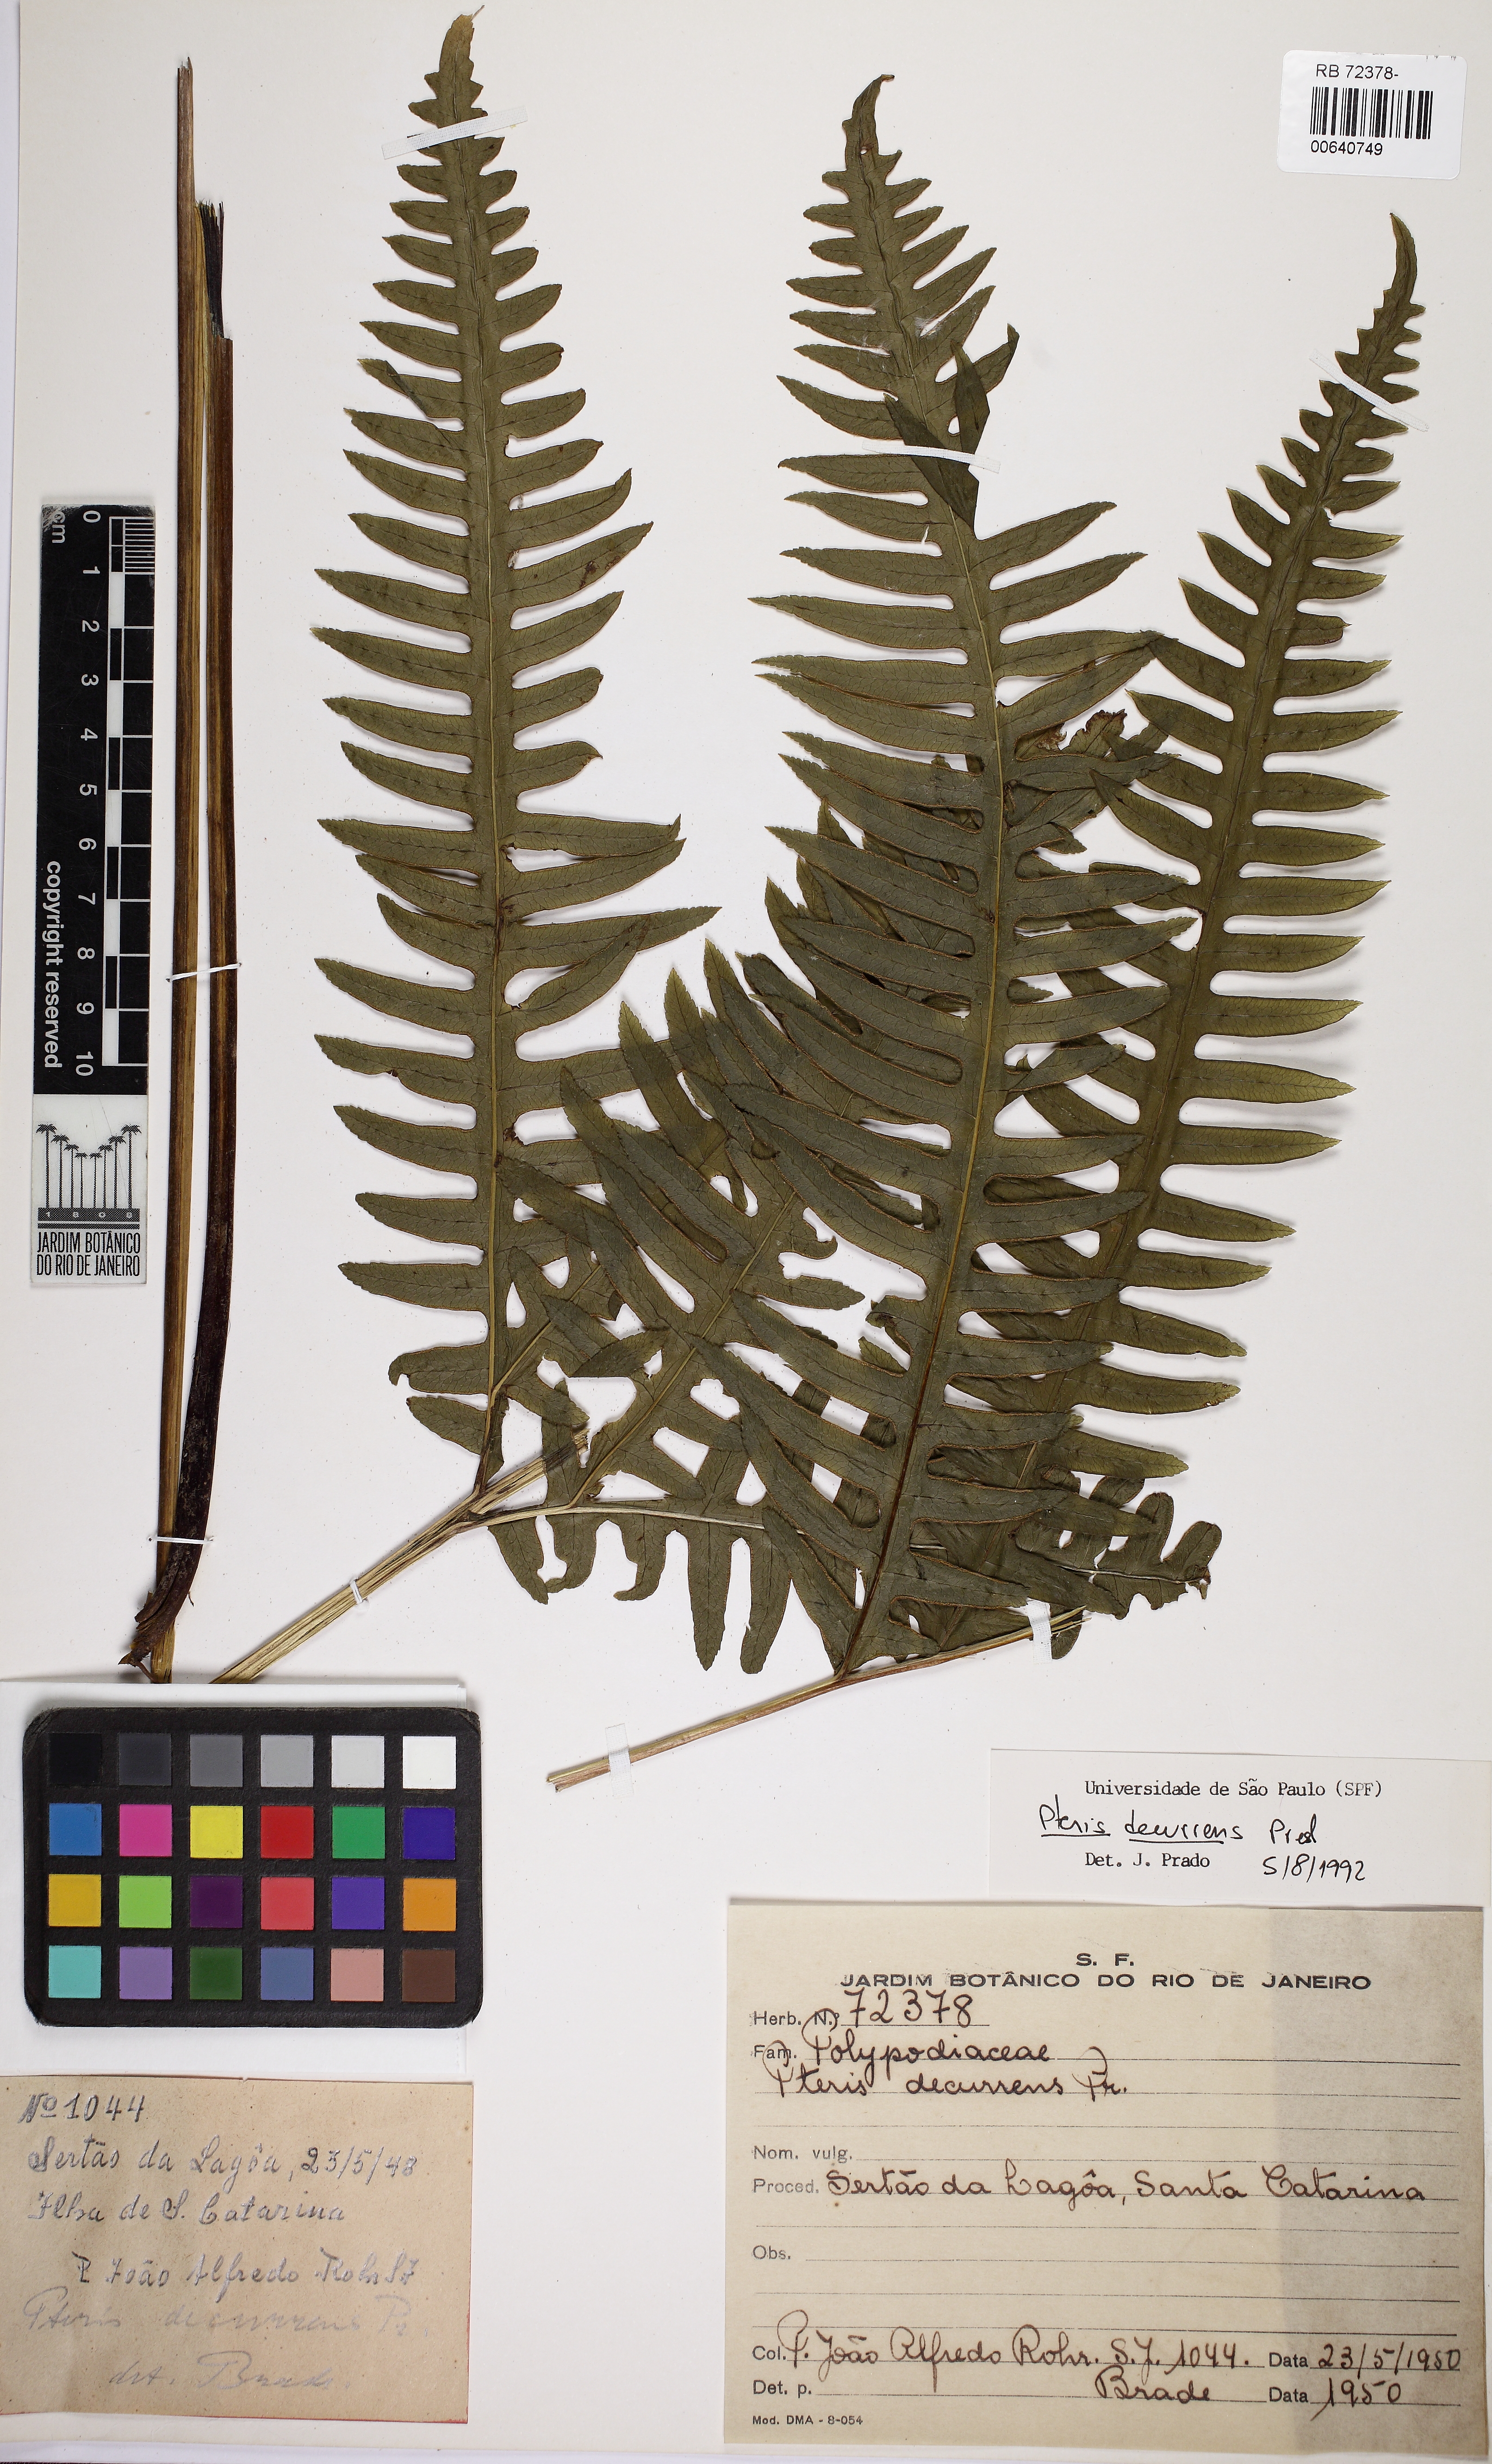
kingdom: Plantae
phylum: Tracheophyta
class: Polypodiopsida
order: Polypodiales
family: Pteridaceae
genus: Pteris
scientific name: Pteris decurrens
